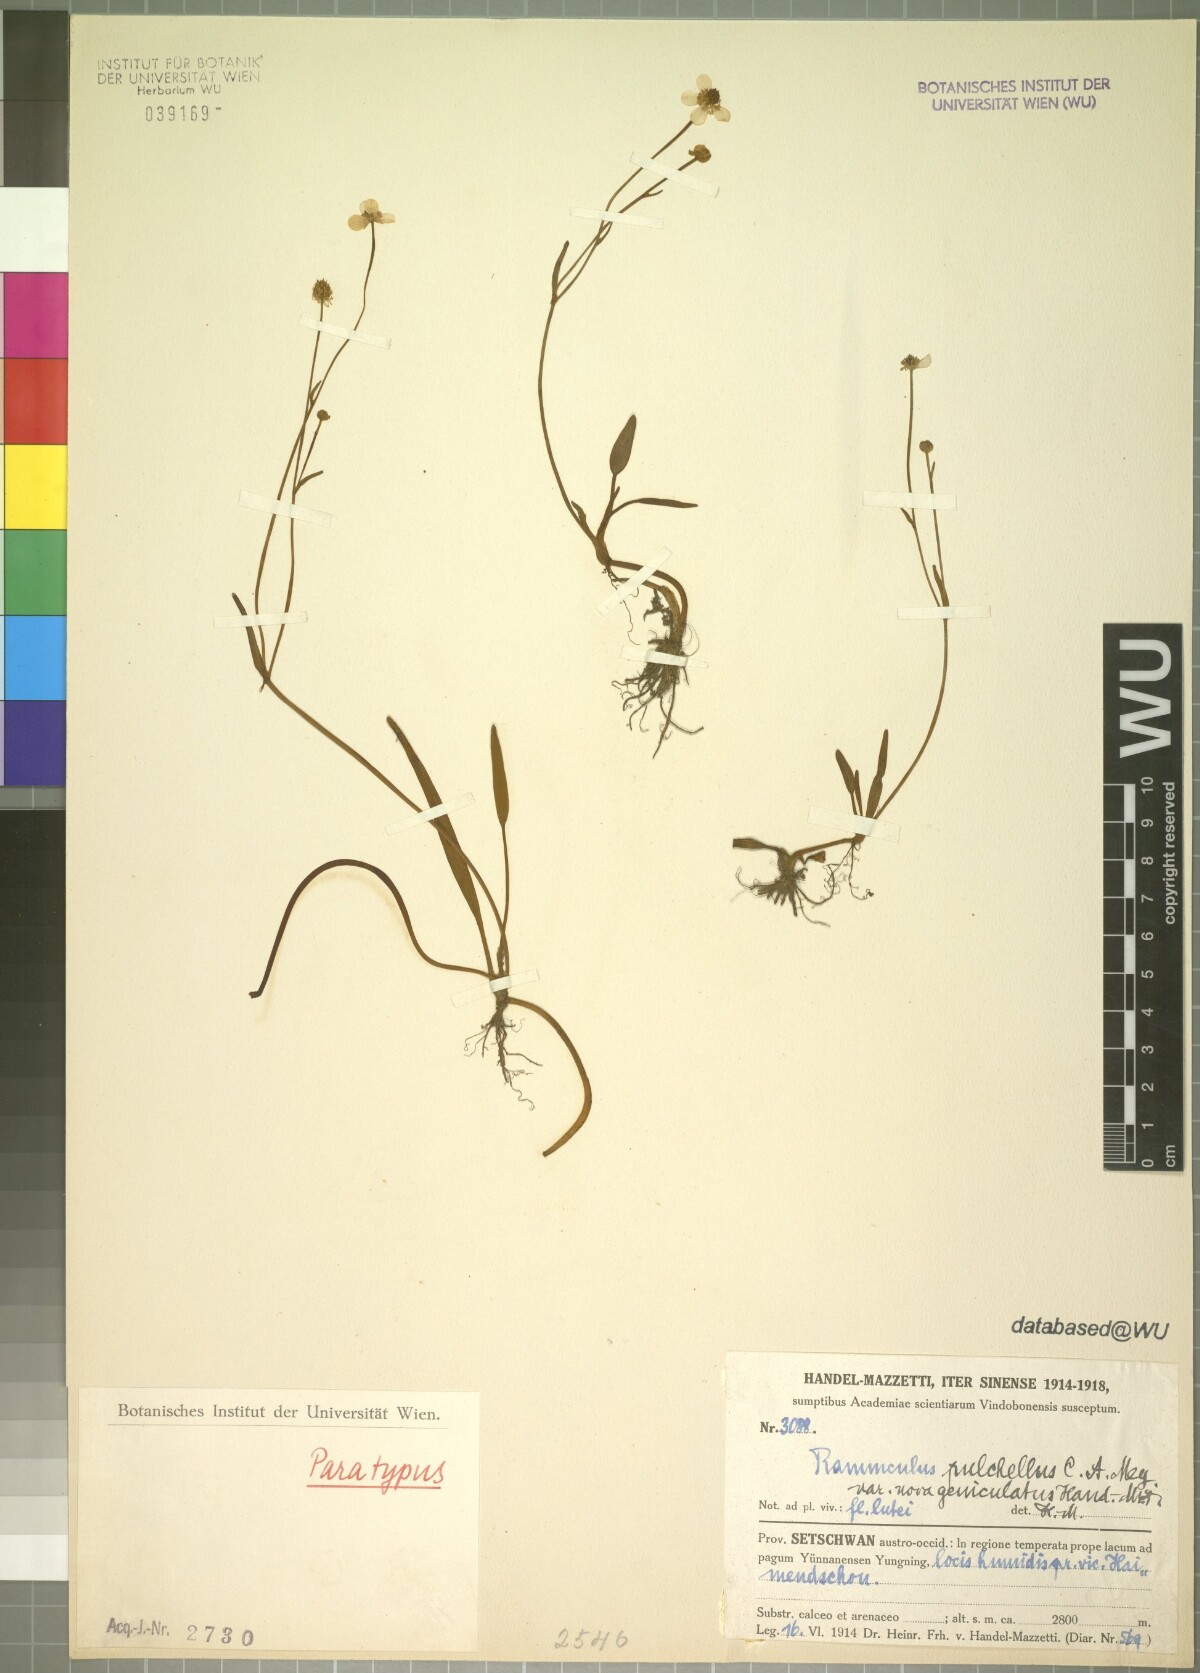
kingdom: Plantae
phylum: Tracheophyta
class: Magnoliopsida
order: Ranunculales
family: Ranunculaceae
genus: Ranunculus
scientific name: Ranunculus mazzettii
